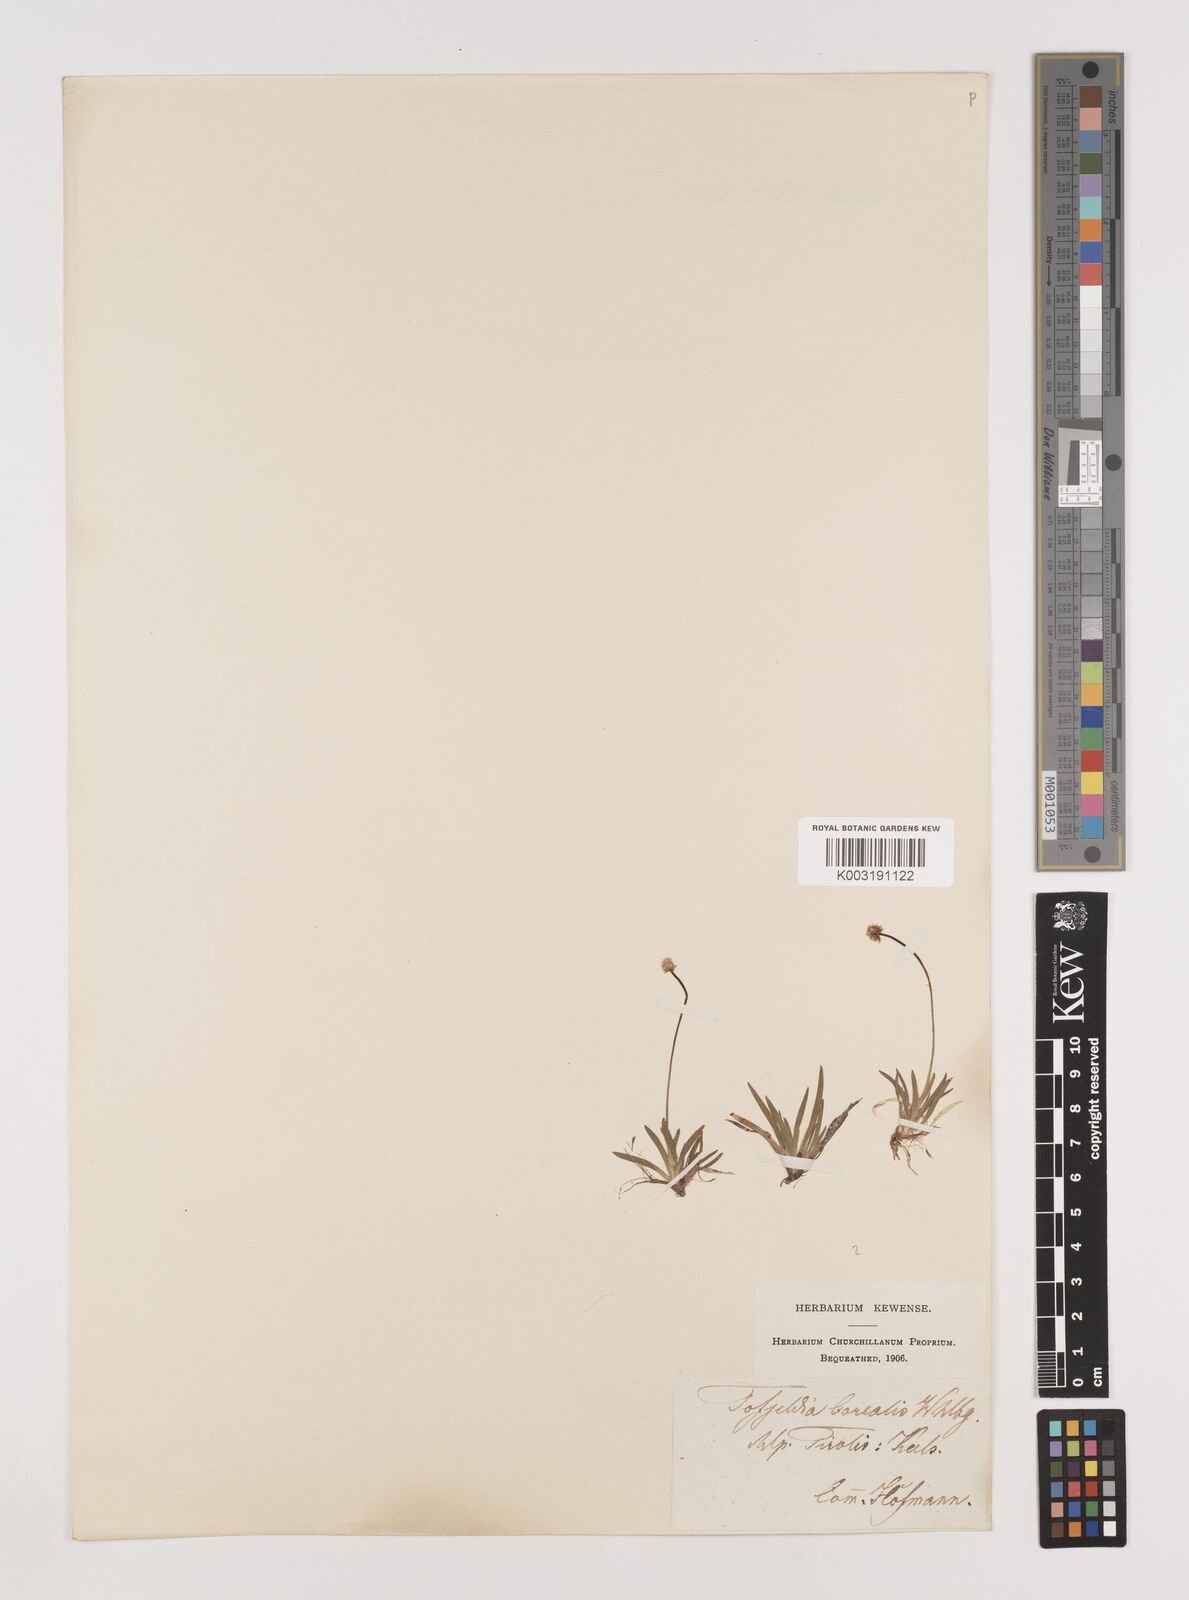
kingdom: Plantae
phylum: Tracheophyta
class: Liliopsida
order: Alismatales
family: Tofieldiaceae
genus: Tofieldia
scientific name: Tofieldia pusilla
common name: Scottish false asphodel
